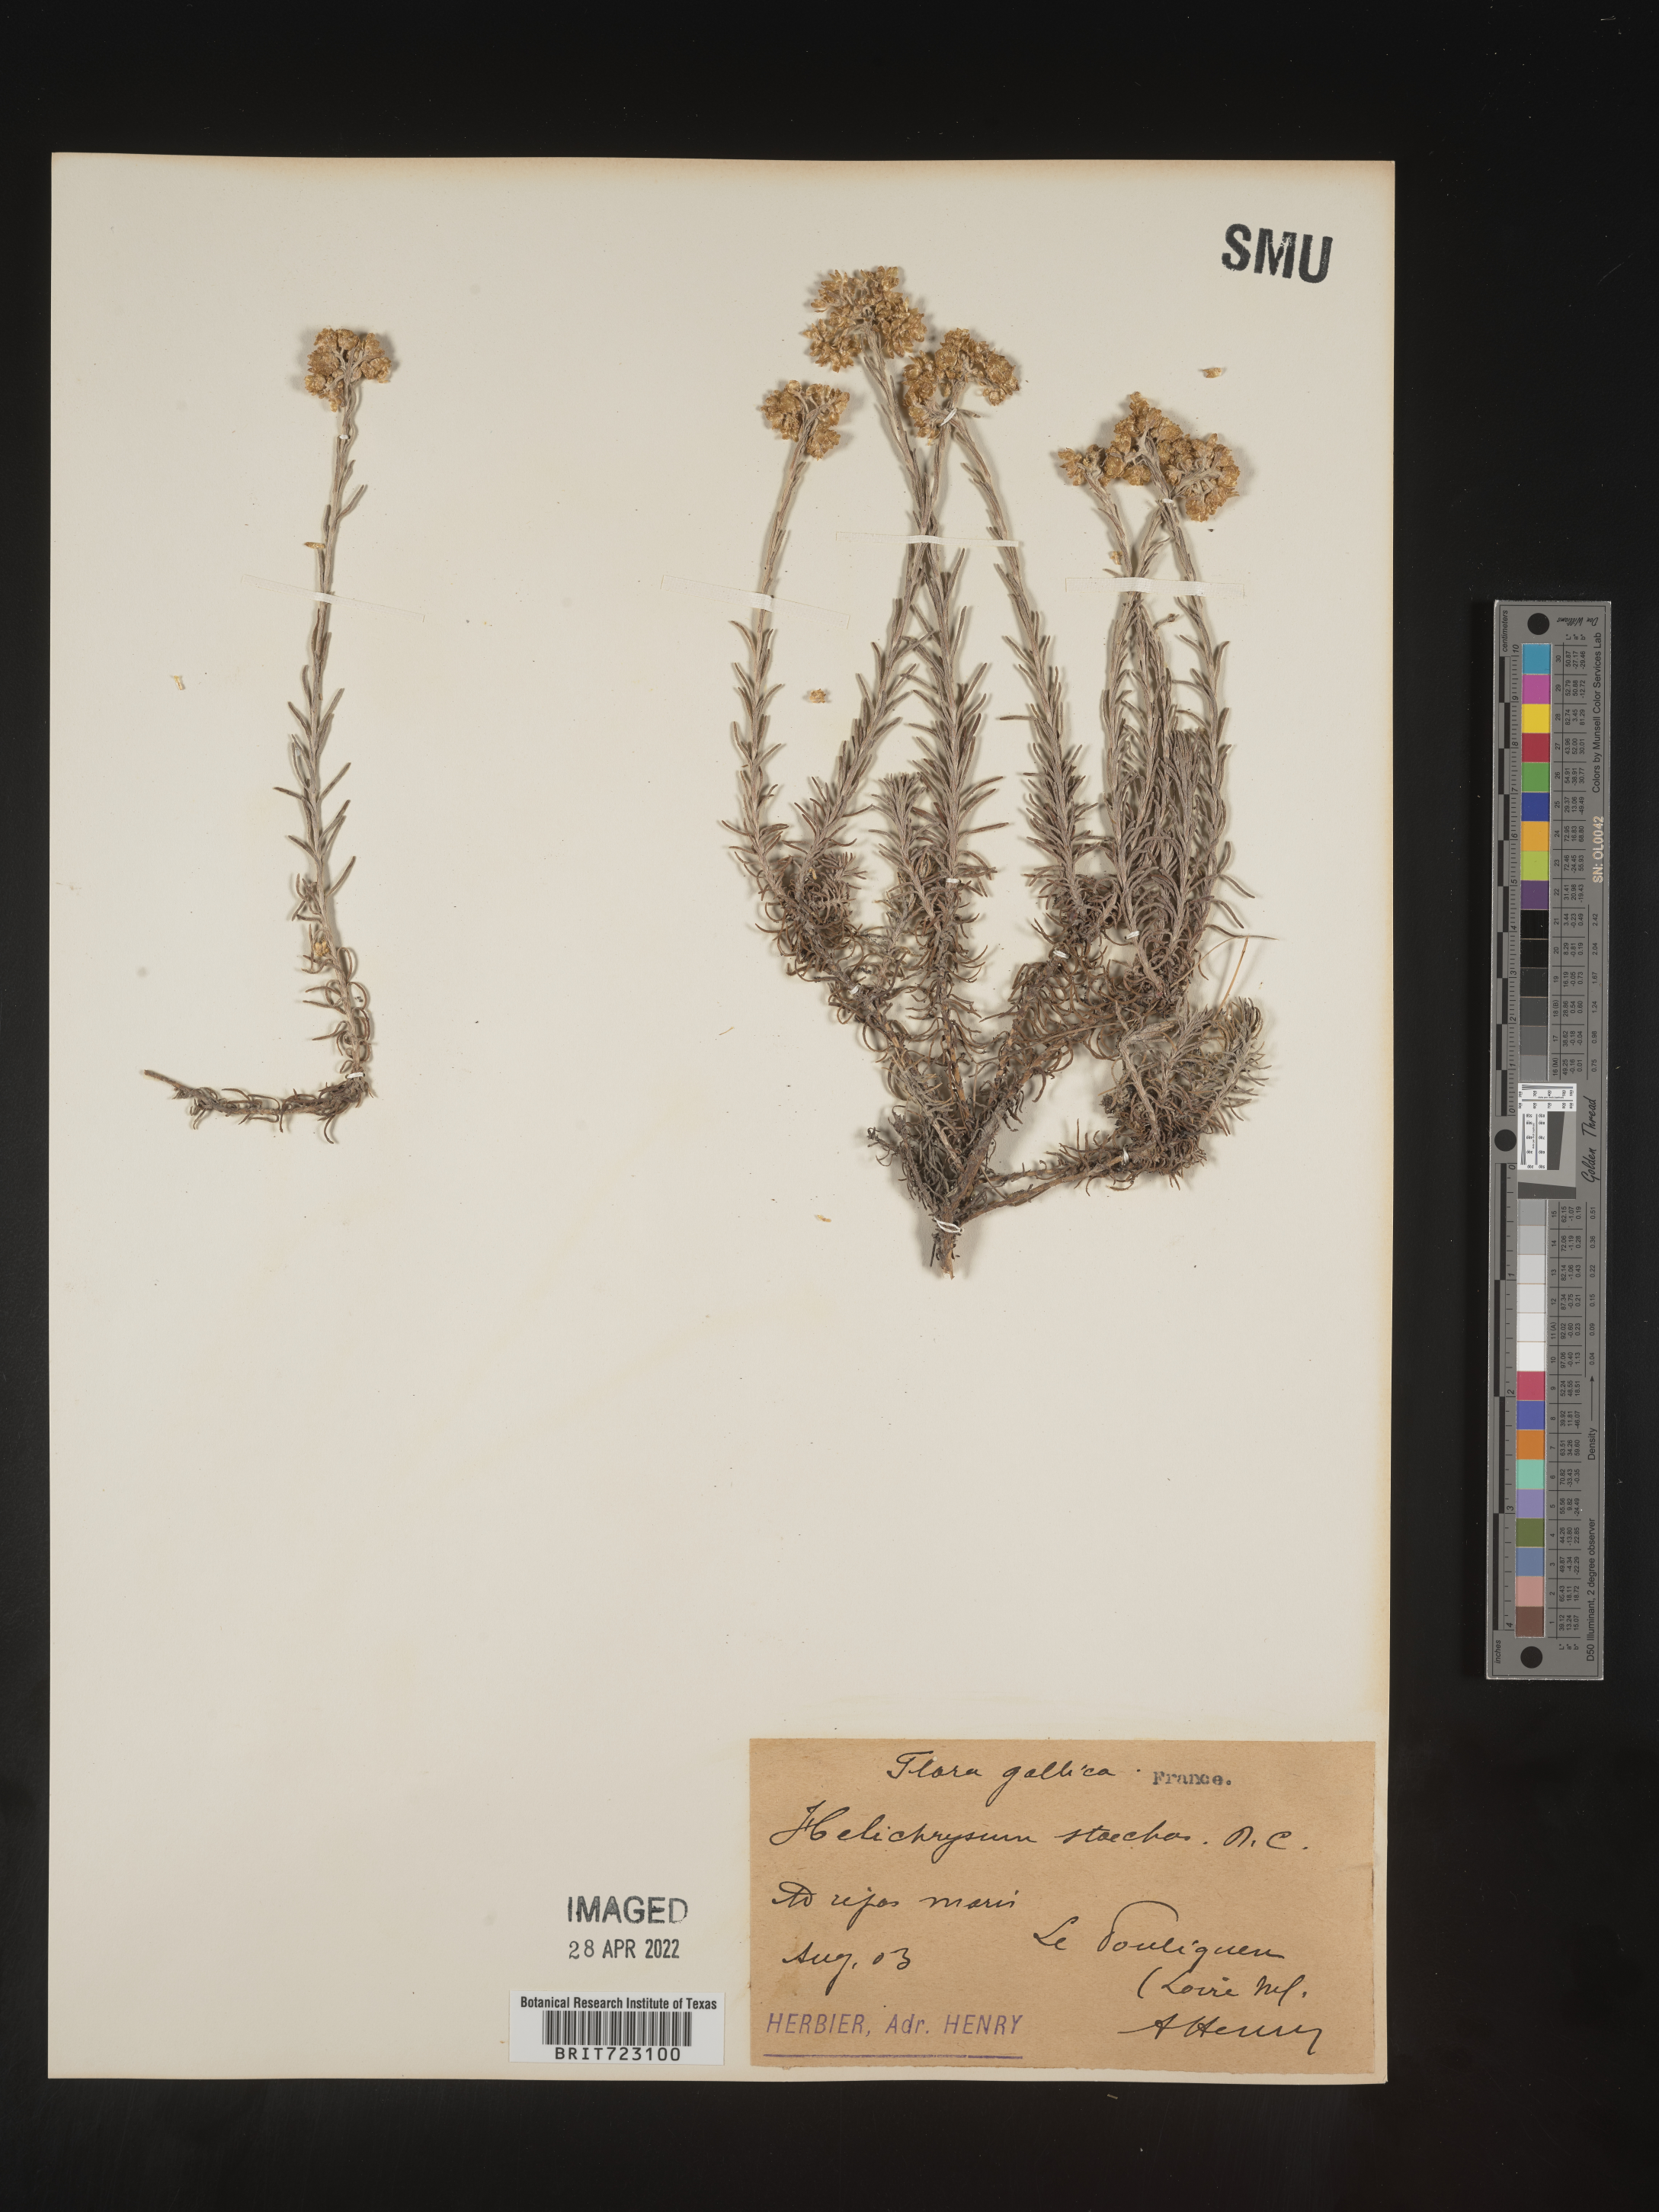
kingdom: Plantae
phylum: Tracheophyta
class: Magnoliopsida
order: Asterales
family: Asteraceae
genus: Helichrysum
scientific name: Helichrysum stoechas
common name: Goldilocks
